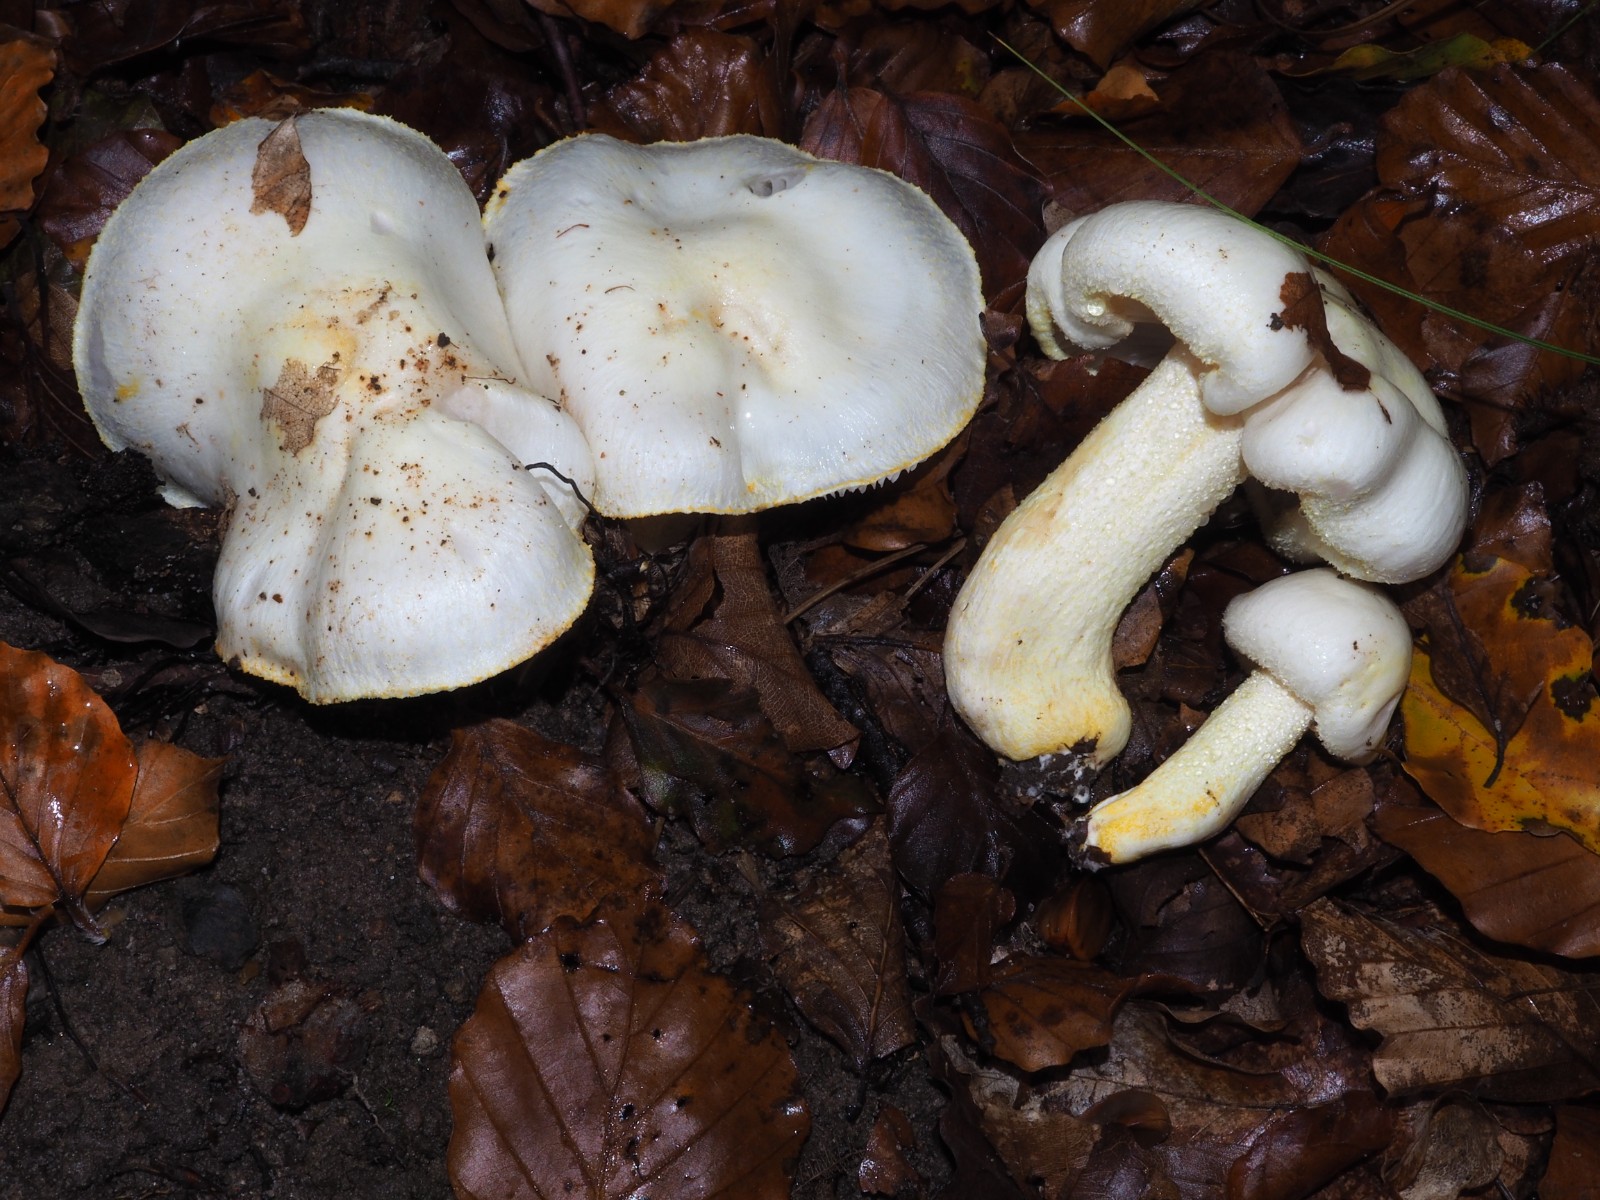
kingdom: Fungi
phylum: Basidiomycota
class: Agaricomycetes
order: Agaricales
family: Hygrophoraceae
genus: Hygrophorus
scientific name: Hygrophorus chrysodon
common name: gulfnugget sneglehat
